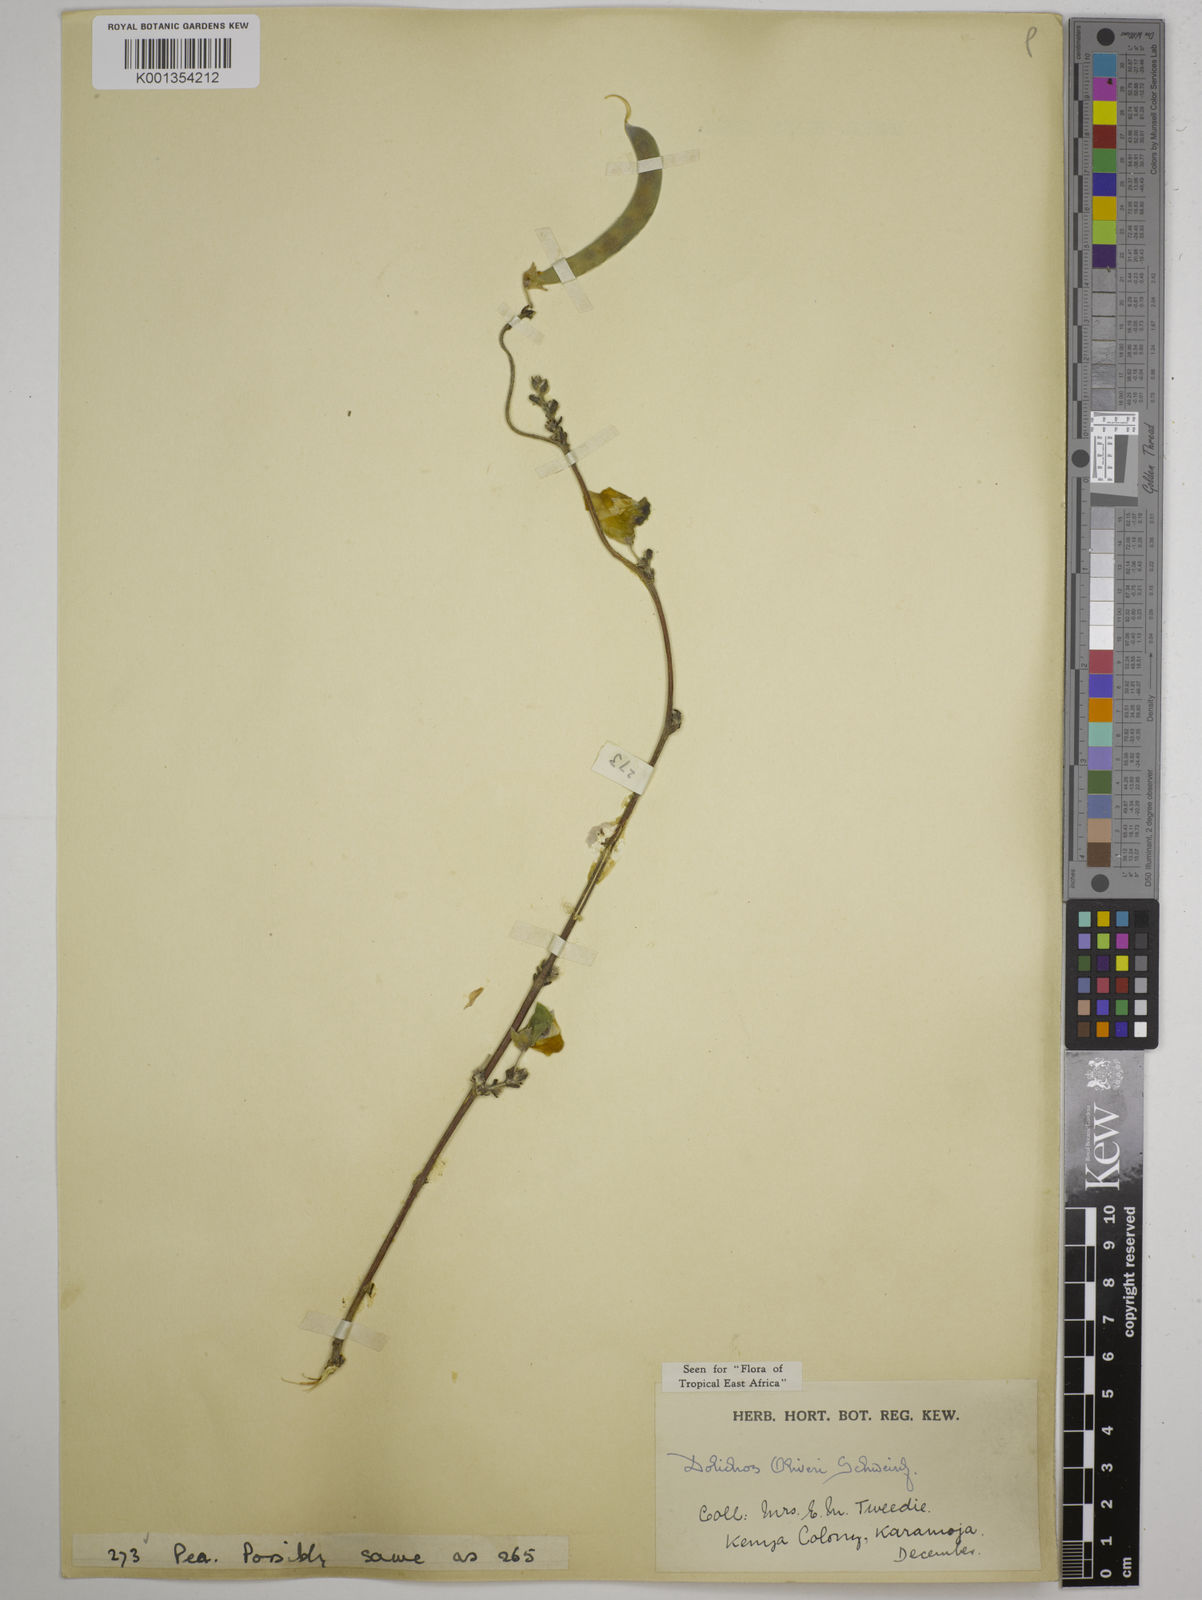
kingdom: Plantae
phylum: Tracheophyta
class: Magnoliopsida
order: Fabales
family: Fabaceae
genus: Dolichos
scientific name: Dolichos
